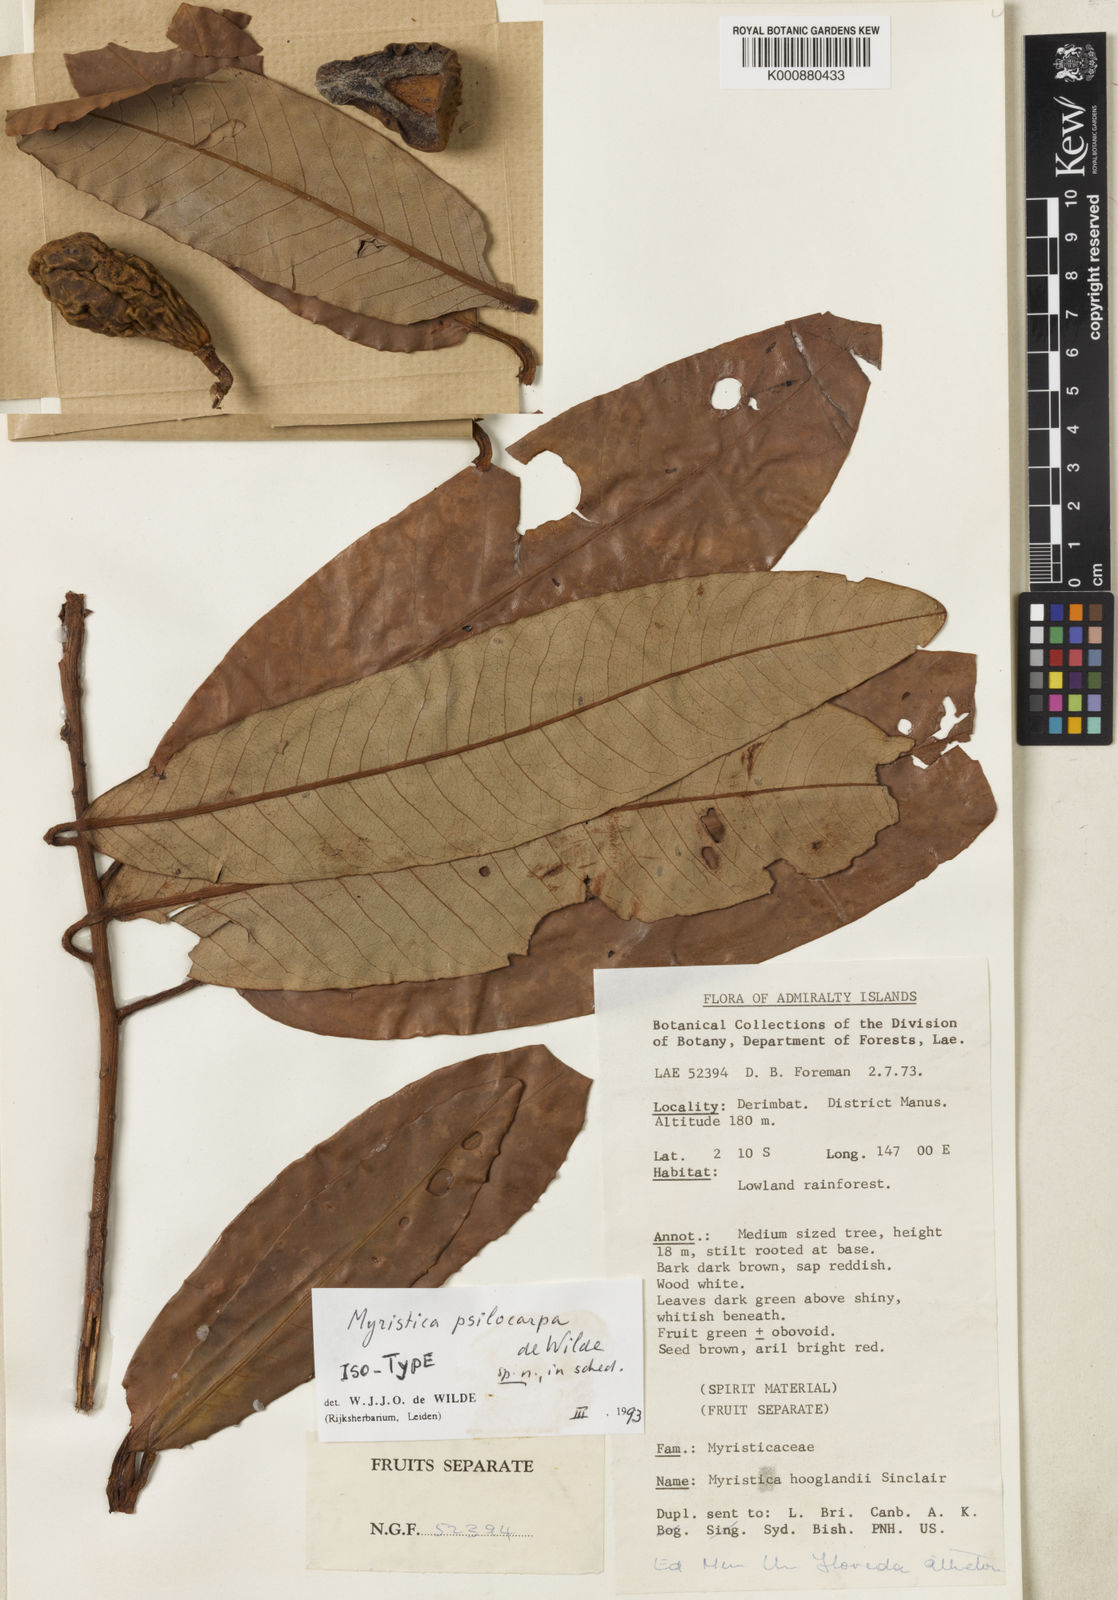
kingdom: Plantae
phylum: Tracheophyta
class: Magnoliopsida
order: Magnoliales
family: Myristicaceae
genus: Myristica
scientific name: Myristica psilocarpa
